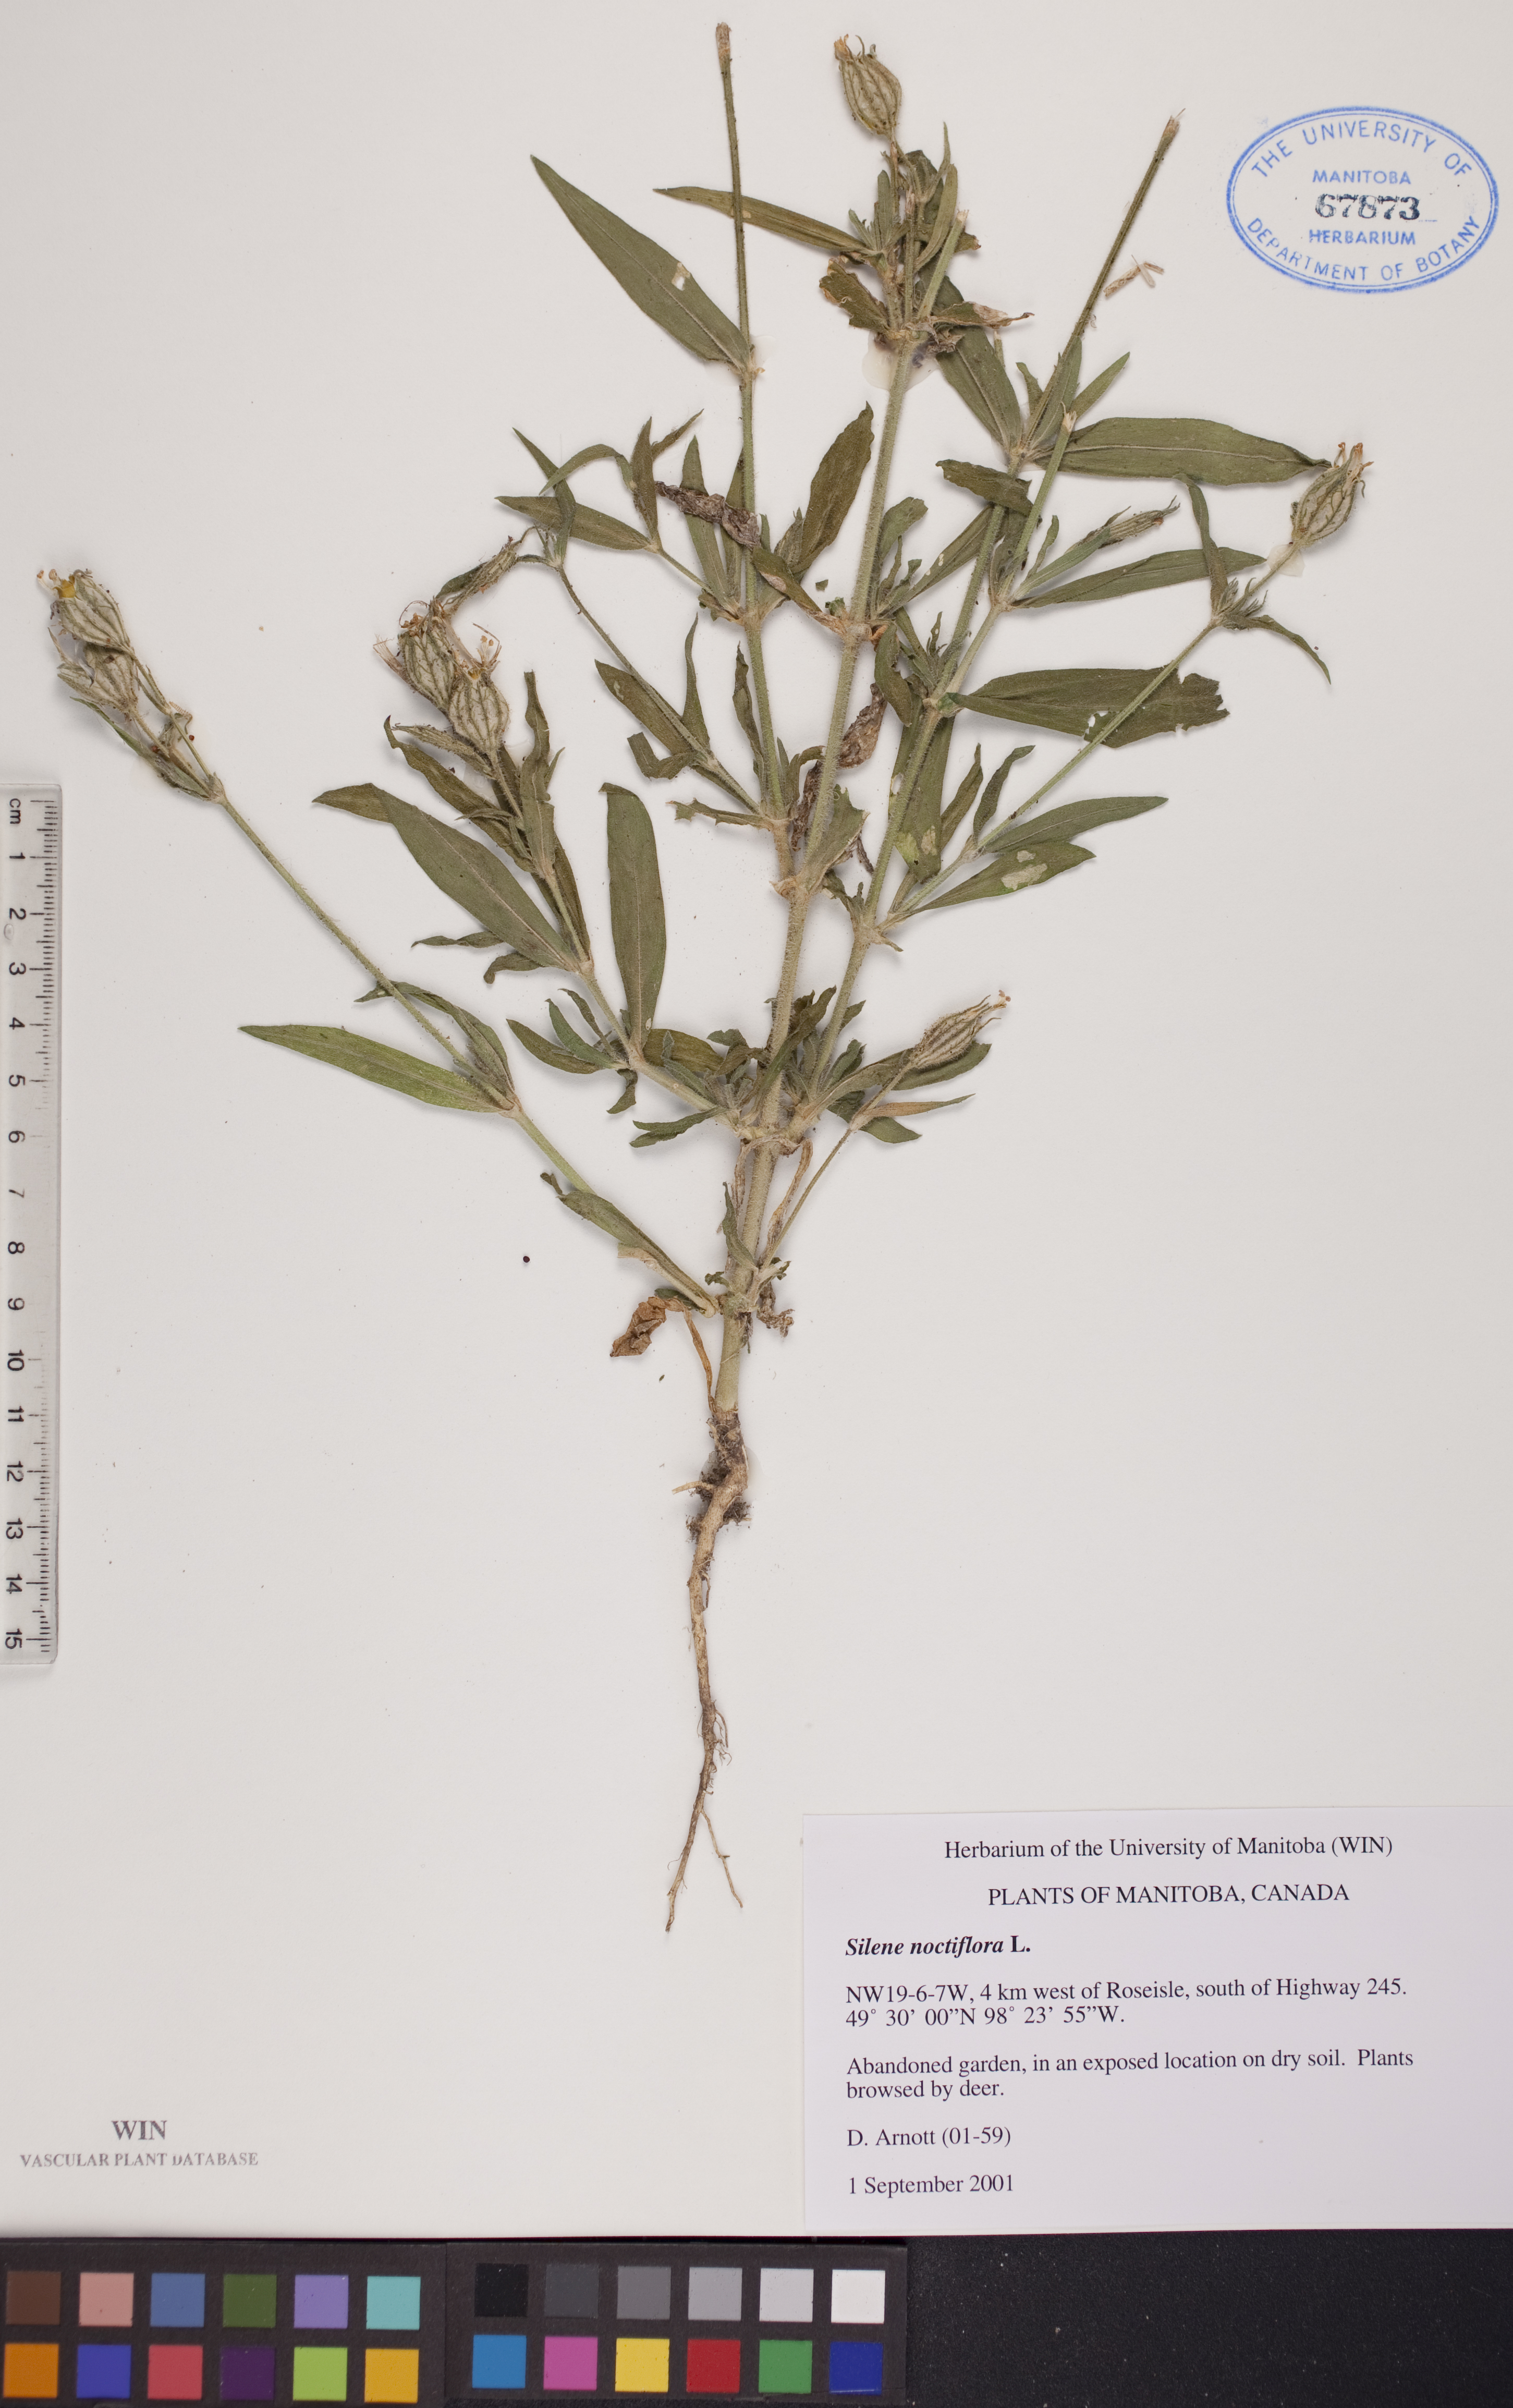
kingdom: Plantae
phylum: Tracheophyta
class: Magnoliopsida
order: Caryophyllales
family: Caryophyllaceae
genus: Silene
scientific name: Silene noctiflora
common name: Night-flowering catchfly
